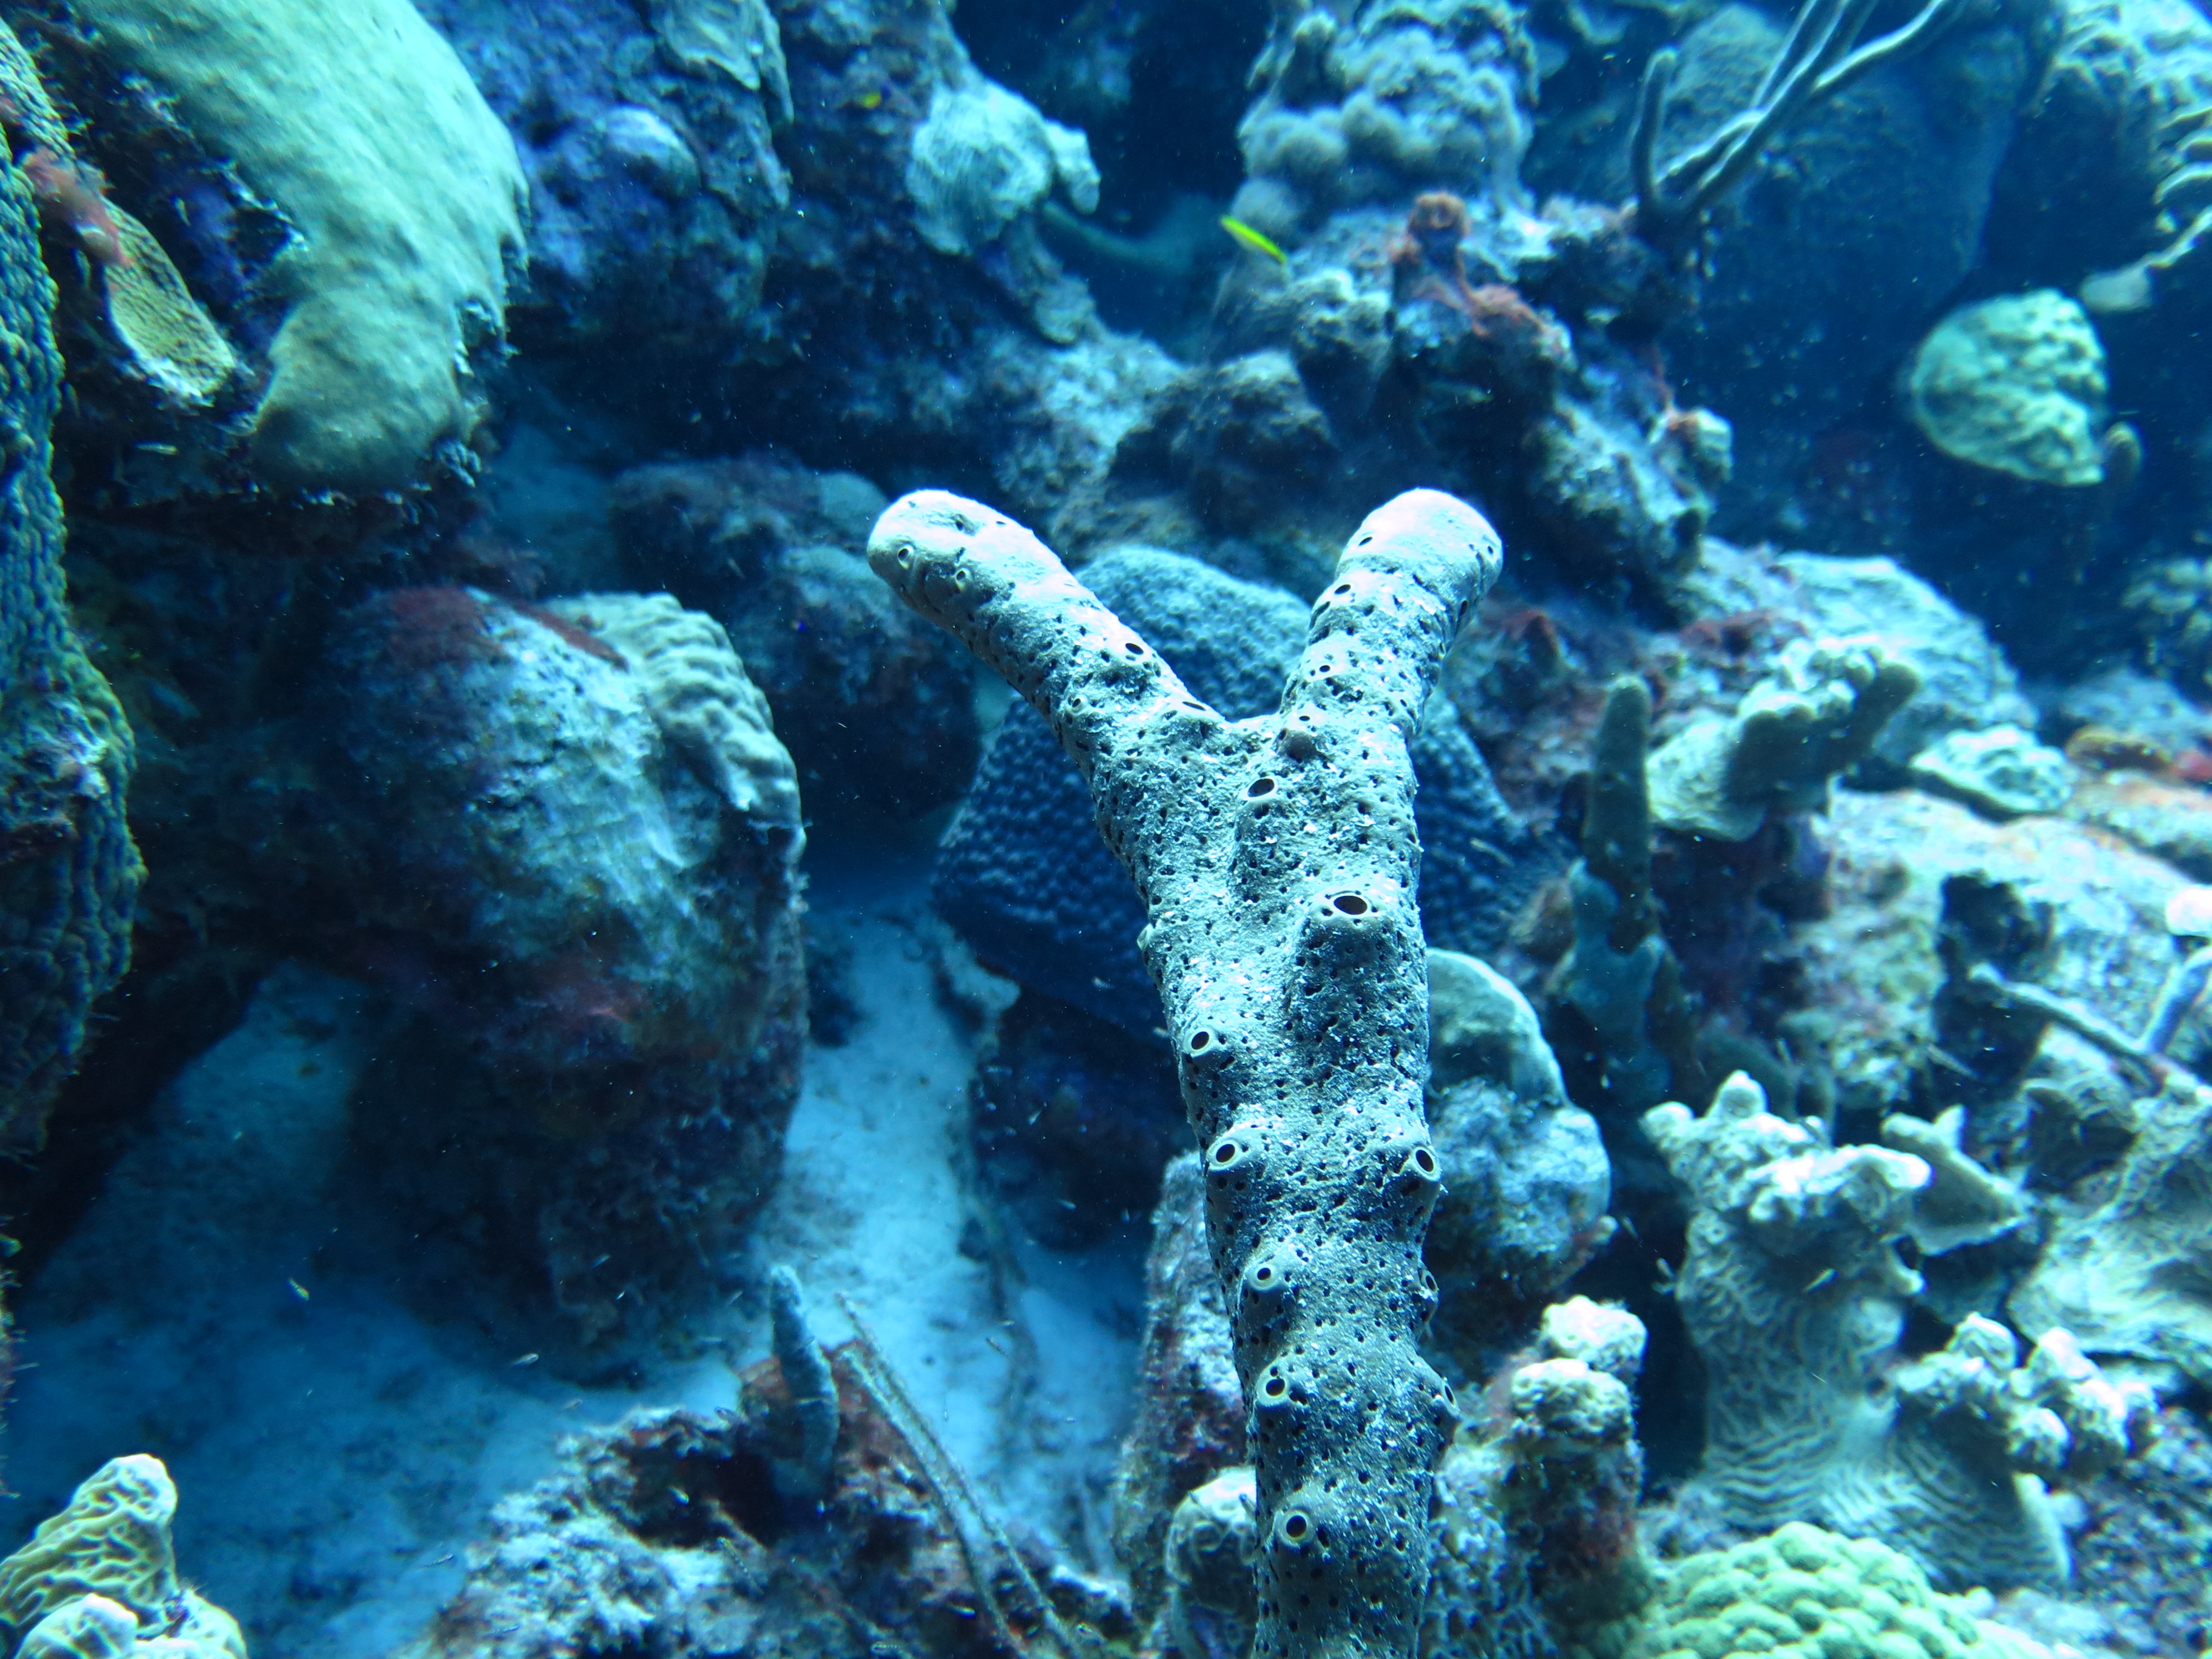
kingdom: Animalia
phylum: Porifera
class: Demospongiae
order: Agelasida
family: Agelasidae
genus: Agelas
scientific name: Agelas conifera
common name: Brown tube sponge
